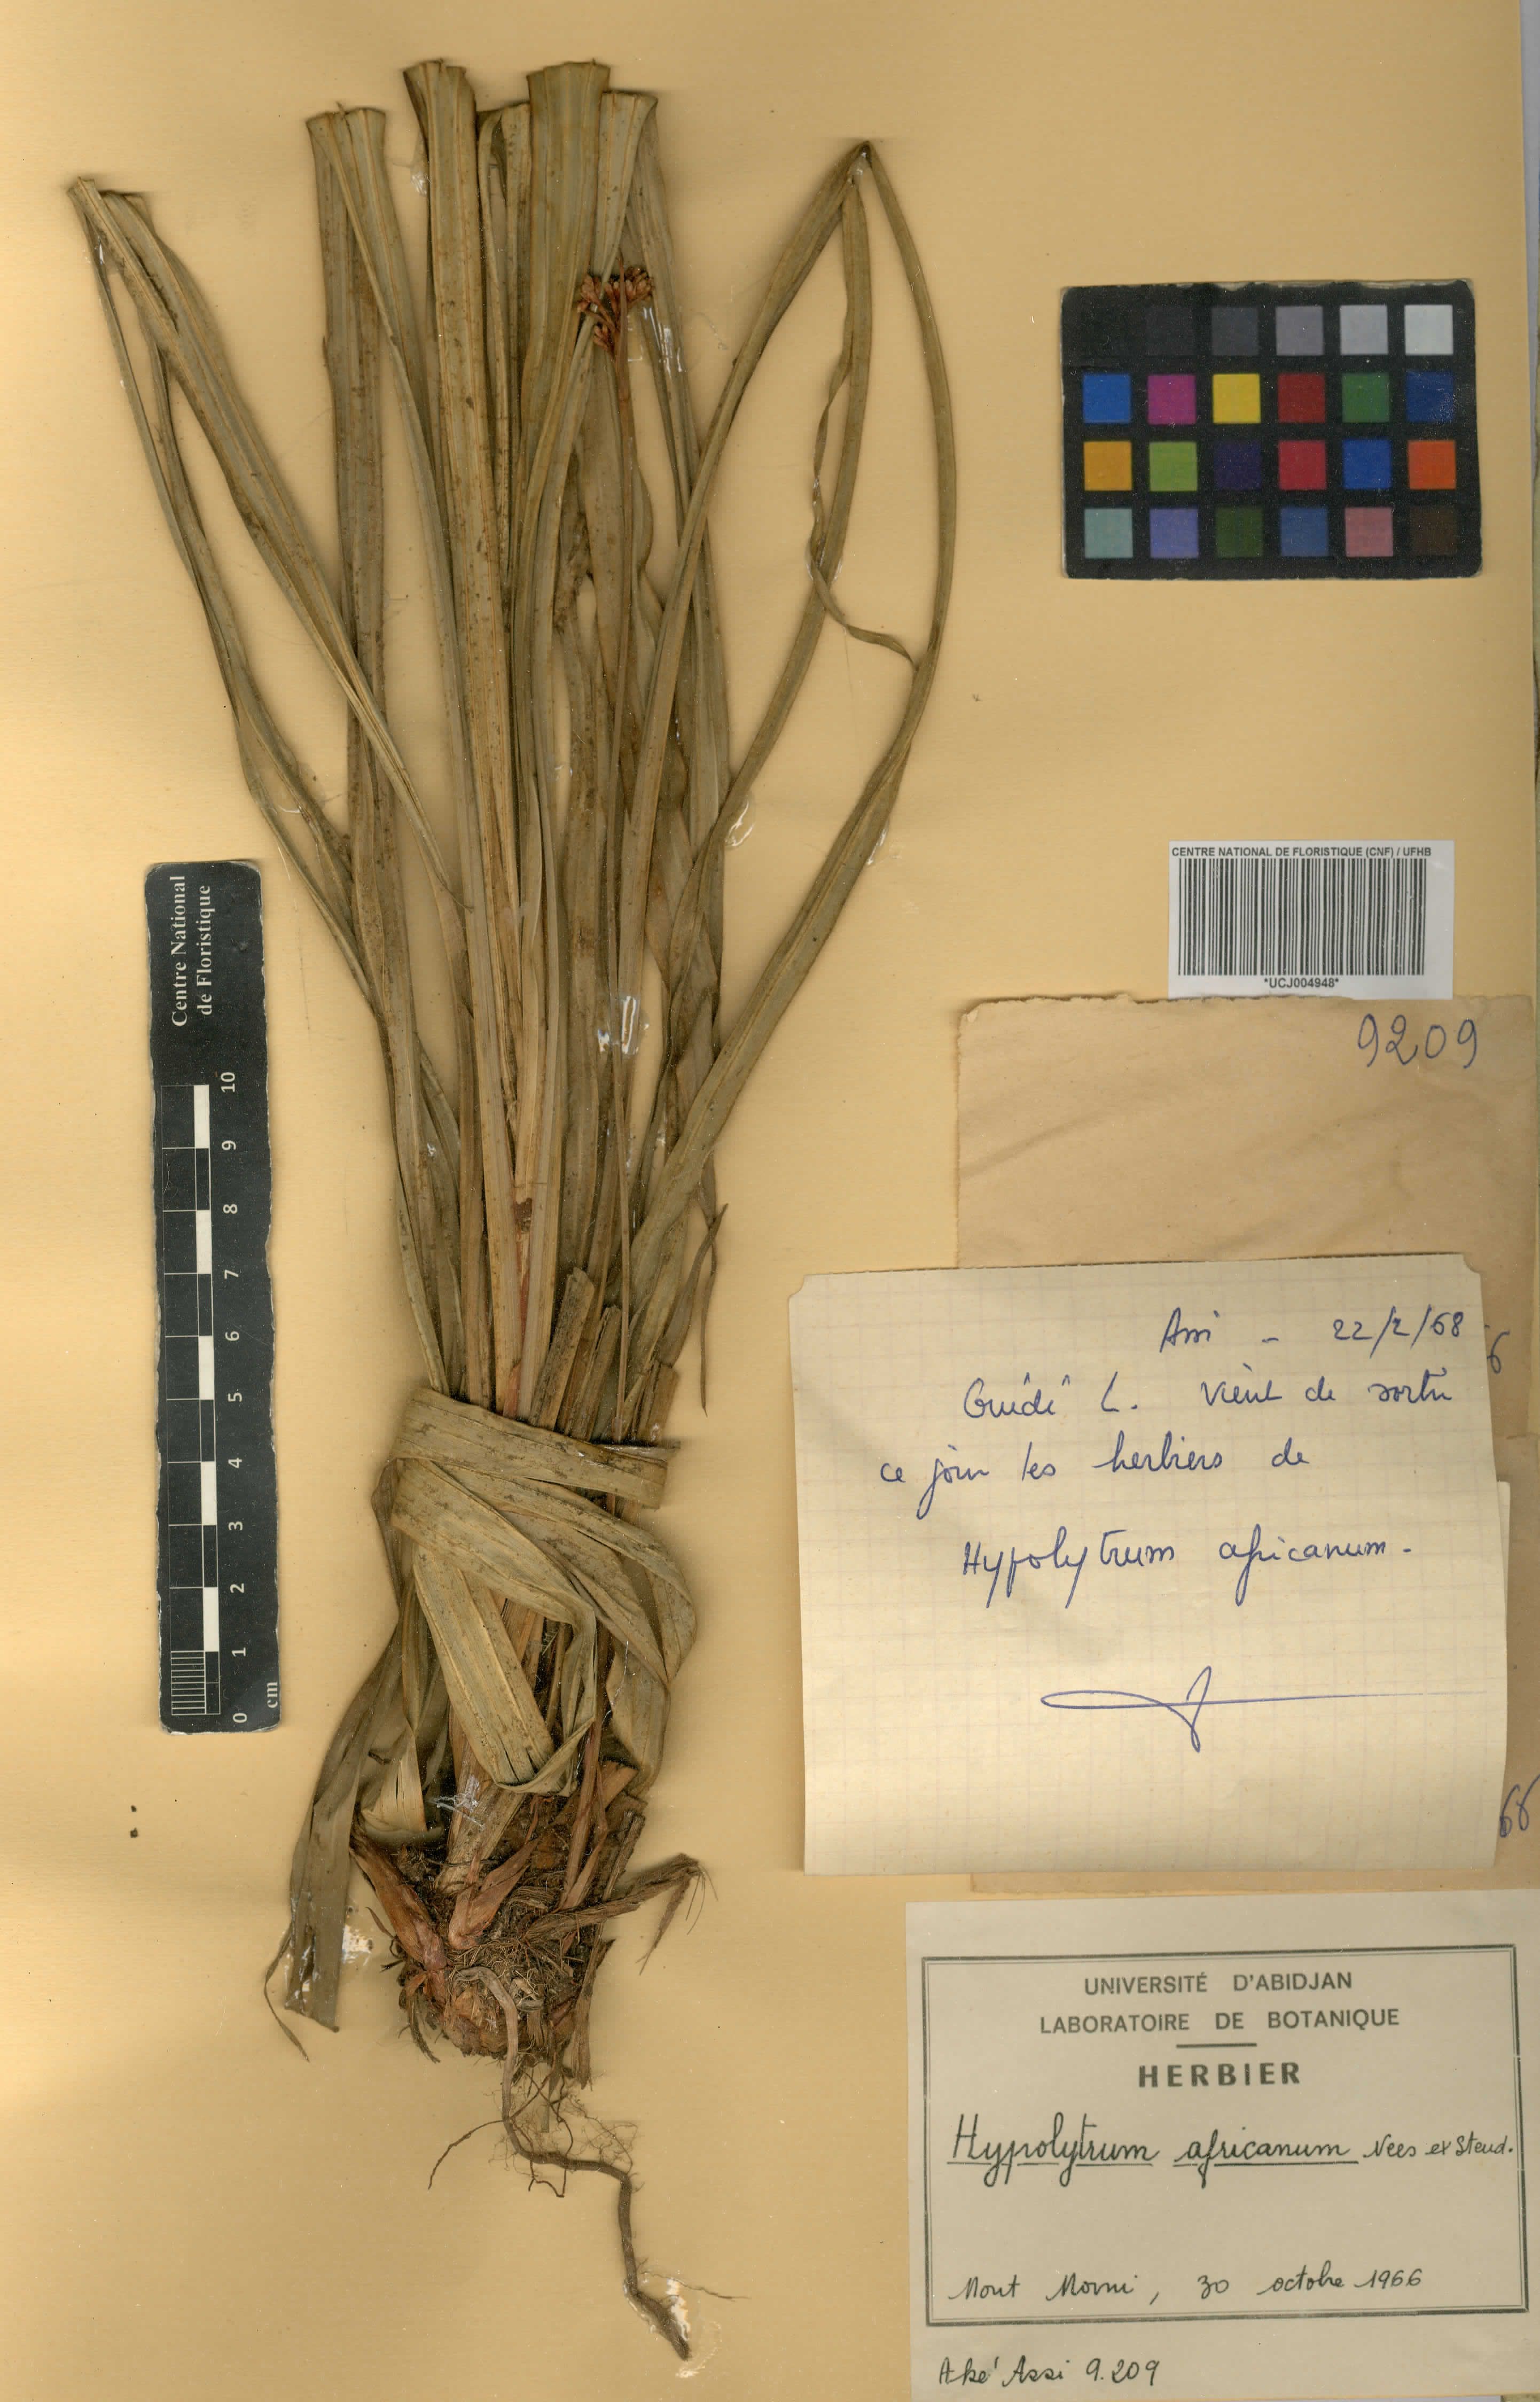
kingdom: Plantae
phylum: Tracheophyta
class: Liliopsida
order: Poales
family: Cyperaceae
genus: Hypolytrum
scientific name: Hypolytrum africanum
